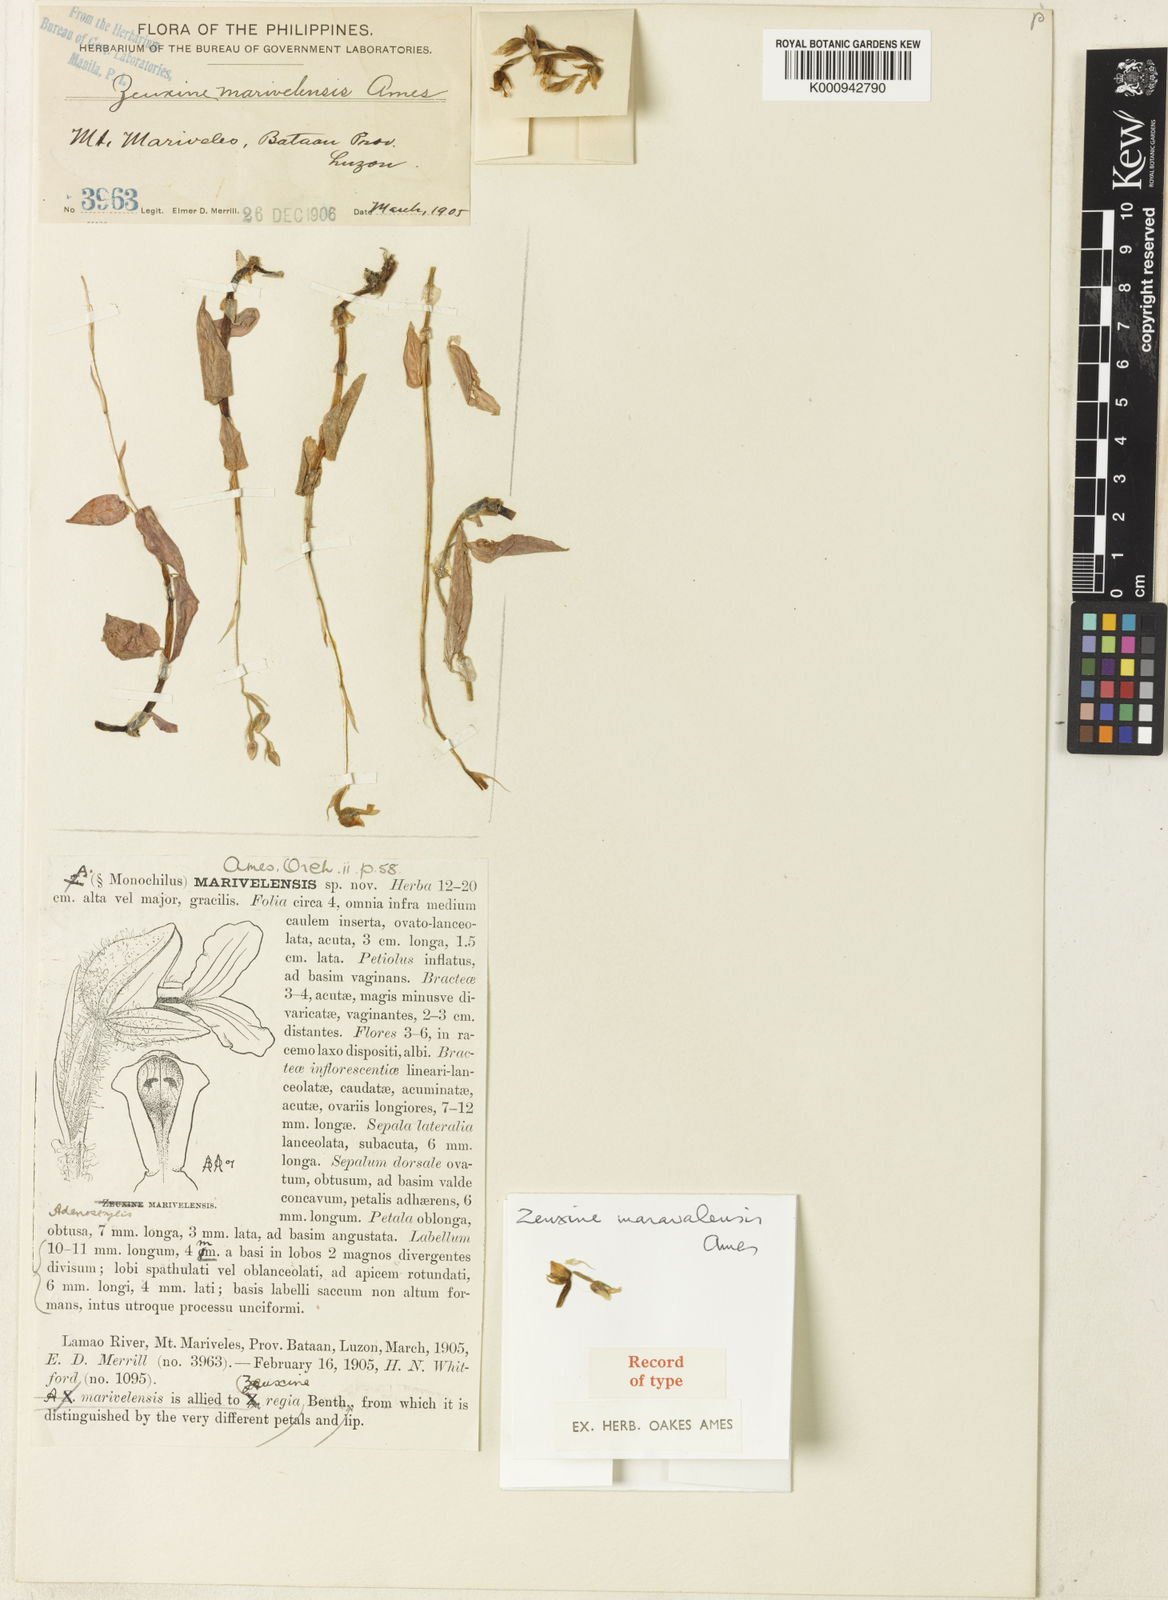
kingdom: Plantae
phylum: Tracheophyta
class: Liliopsida
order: Asparagales
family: Orchidaceae
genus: Zeuxine
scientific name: Zeuxine marivelensis
